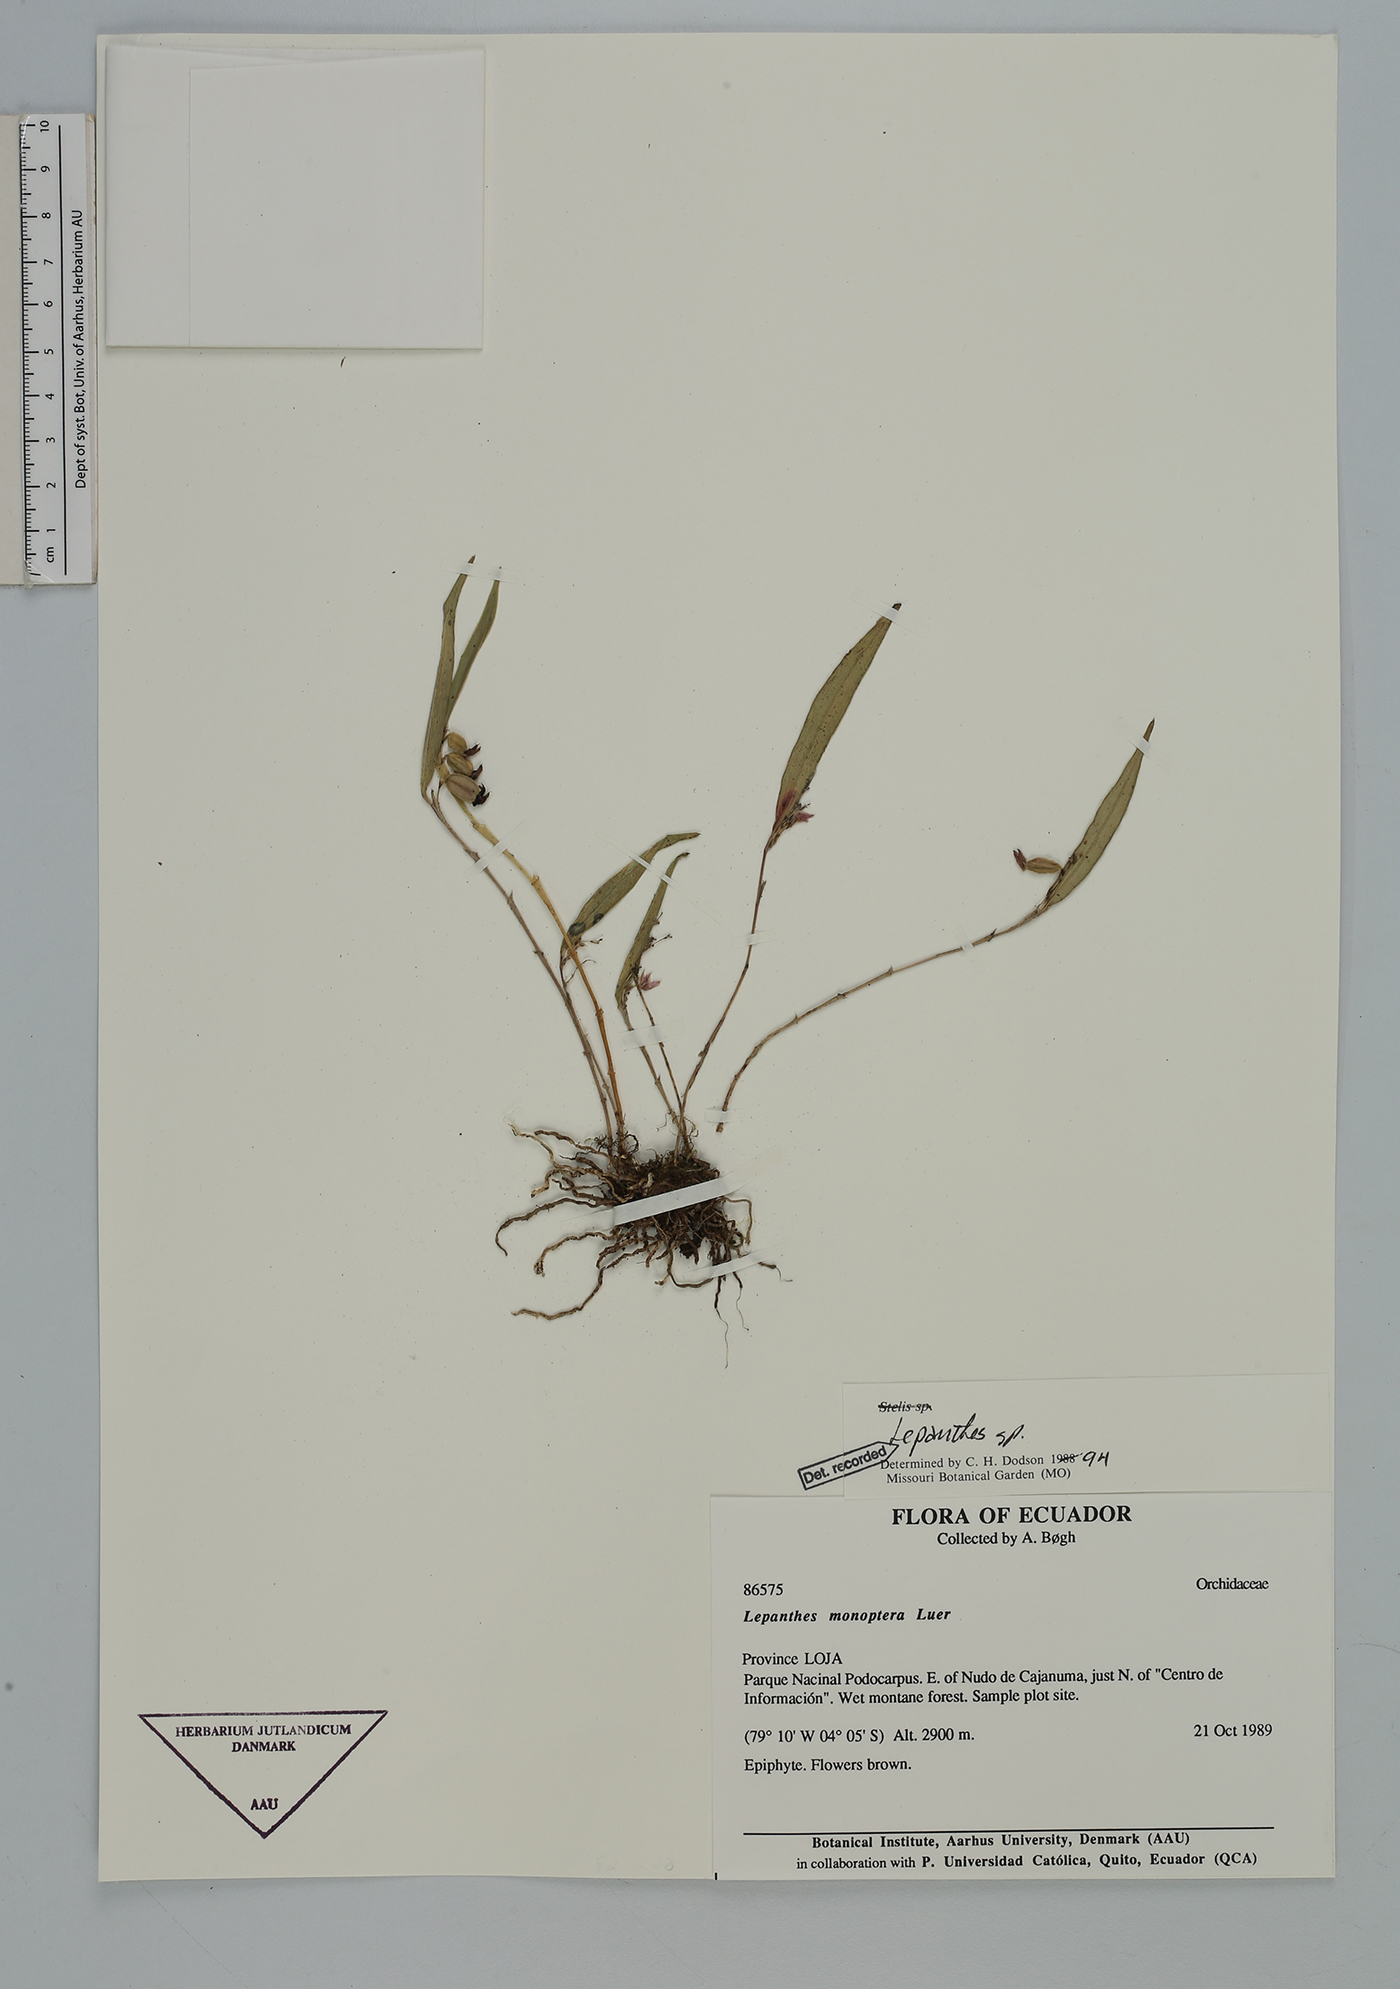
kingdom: Plantae
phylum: Tracheophyta
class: Liliopsida
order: Asparagales
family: Orchidaceae
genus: Lepanthes
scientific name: Lepanthes
